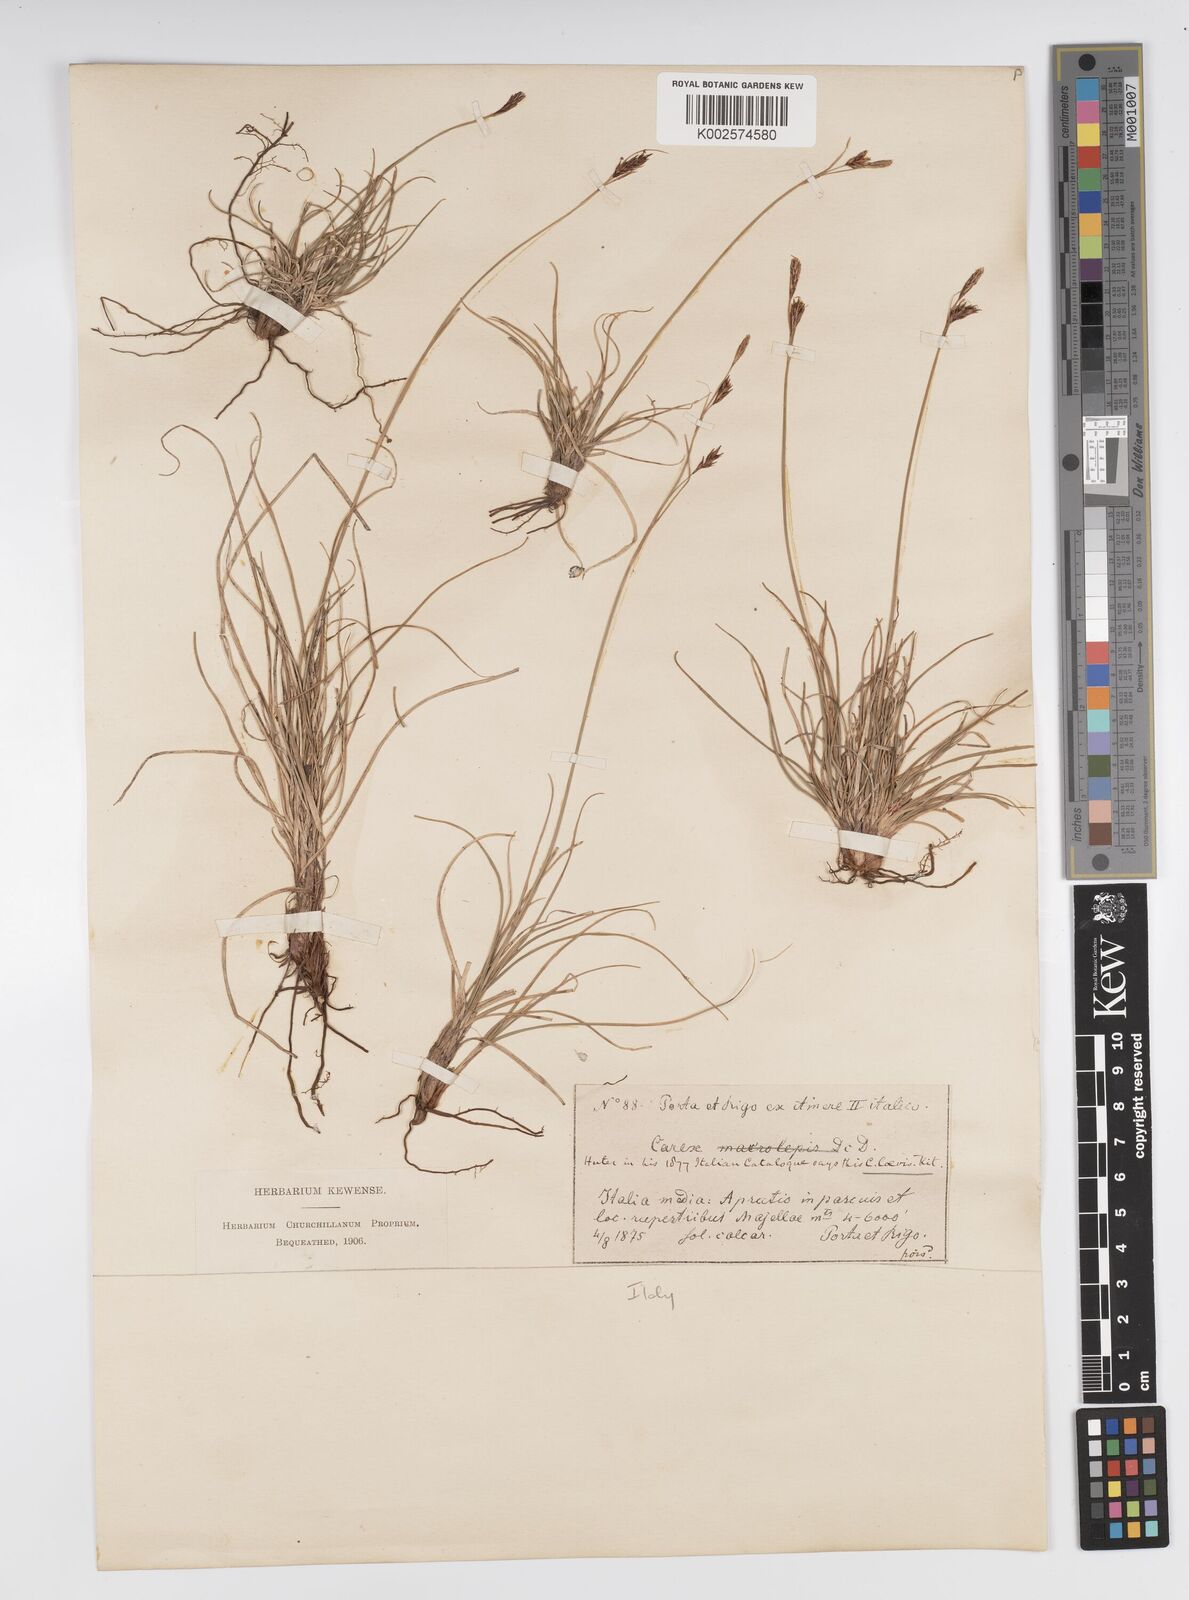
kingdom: Plantae
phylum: Tracheophyta
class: Liliopsida
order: Poales
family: Cyperaceae
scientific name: Cyperaceae
